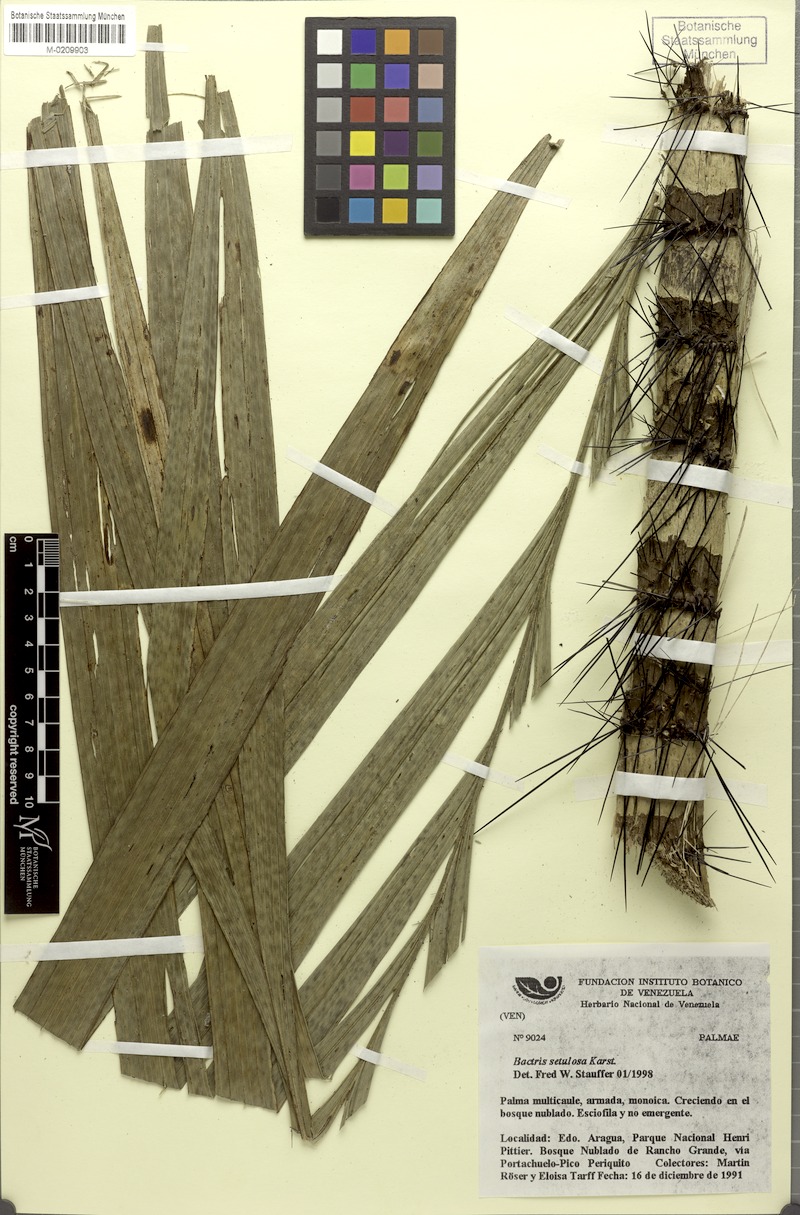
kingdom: Plantae
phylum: Tracheophyta
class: Liliopsida
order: Arecales
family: Arecaceae
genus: Bactris
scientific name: Bactris setulosa
